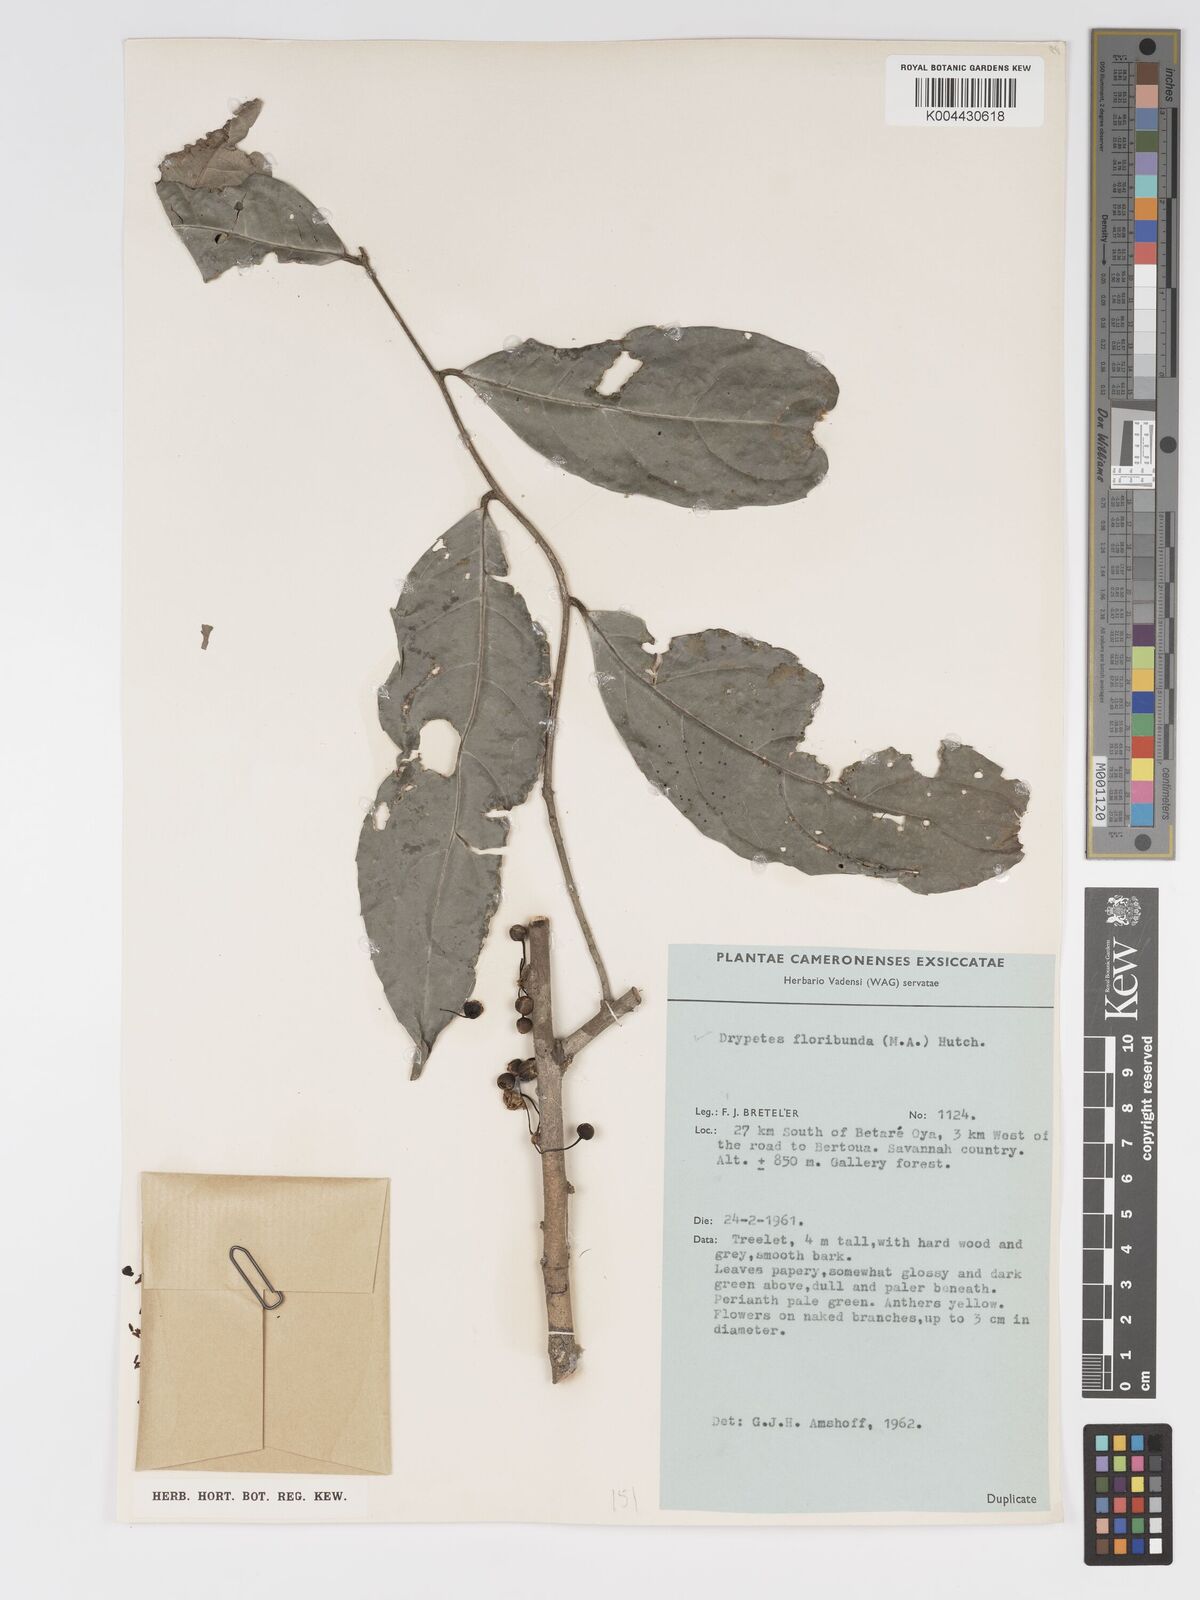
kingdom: Plantae
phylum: Tracheophyta
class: Magnoliopsida
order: Malpighiales
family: Putranjivaceae
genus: Drypetes
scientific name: Drypetes floribunda
